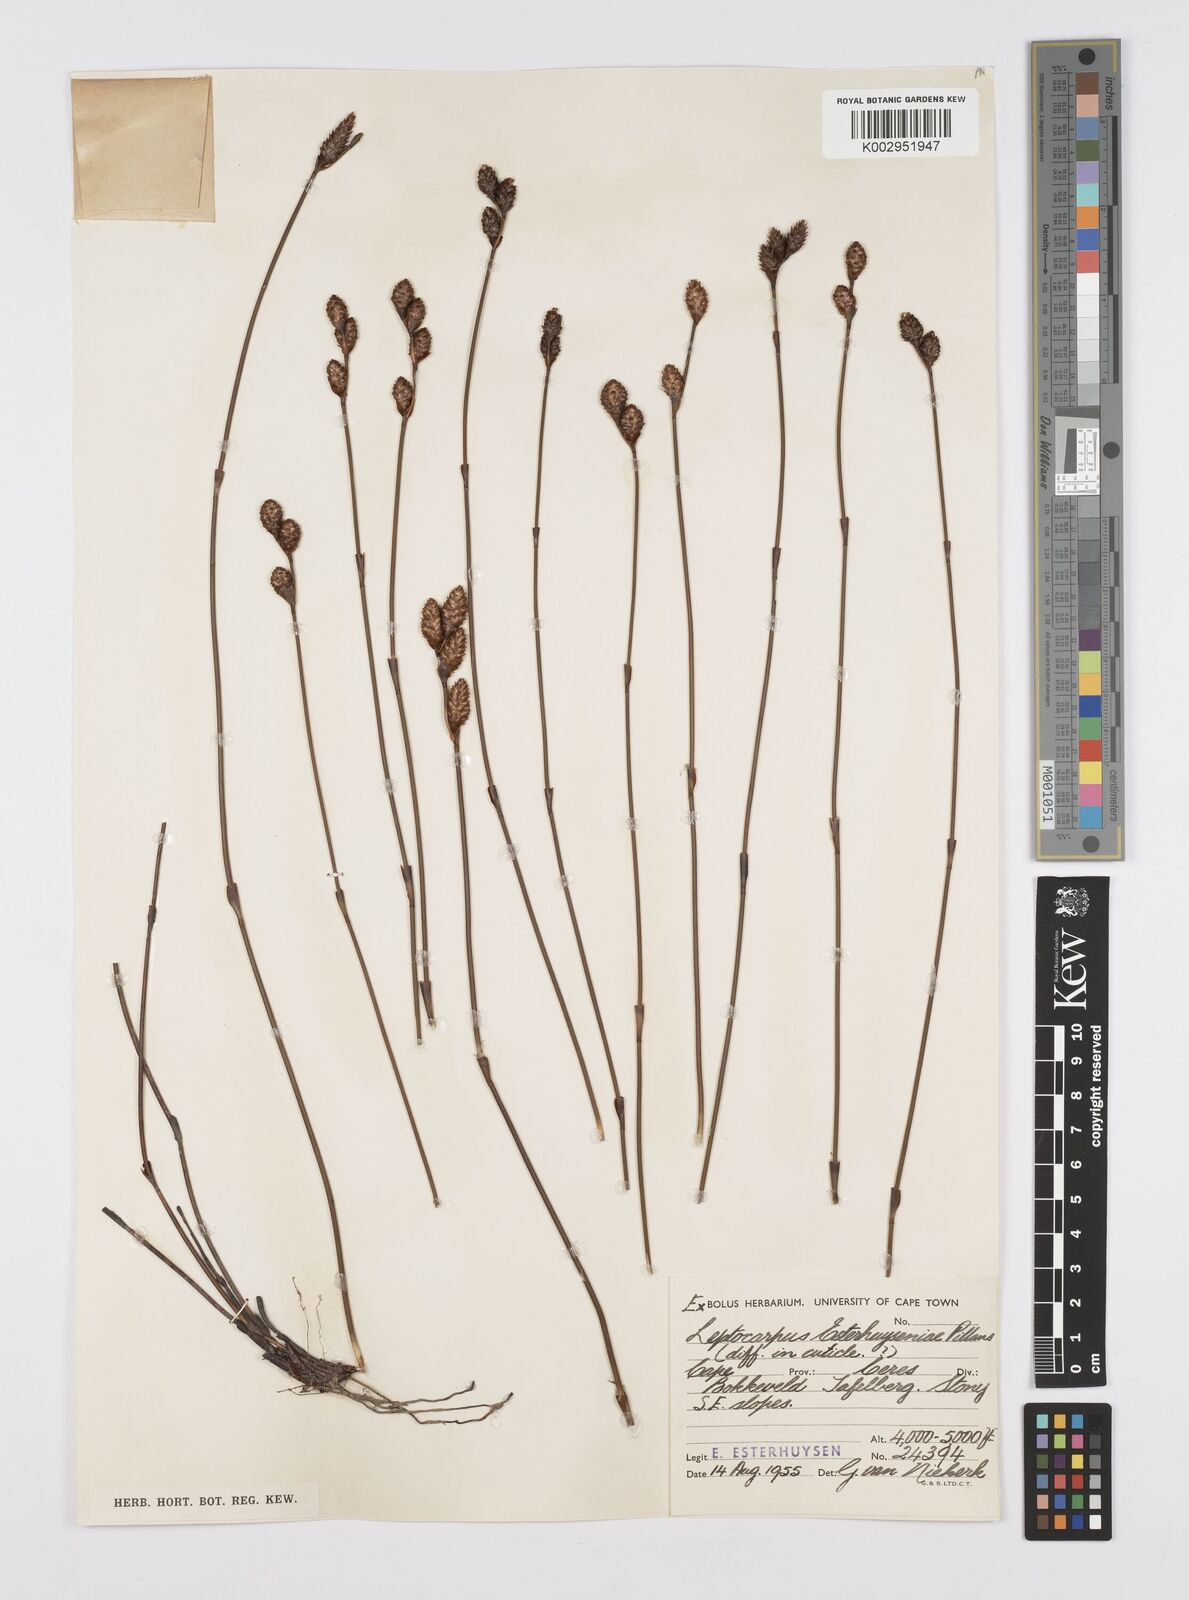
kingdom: Plantae
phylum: Tracheophyta
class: Liliopsida
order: Poales
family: Restionaceae
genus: Restio
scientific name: Restio esterhuyseniae
